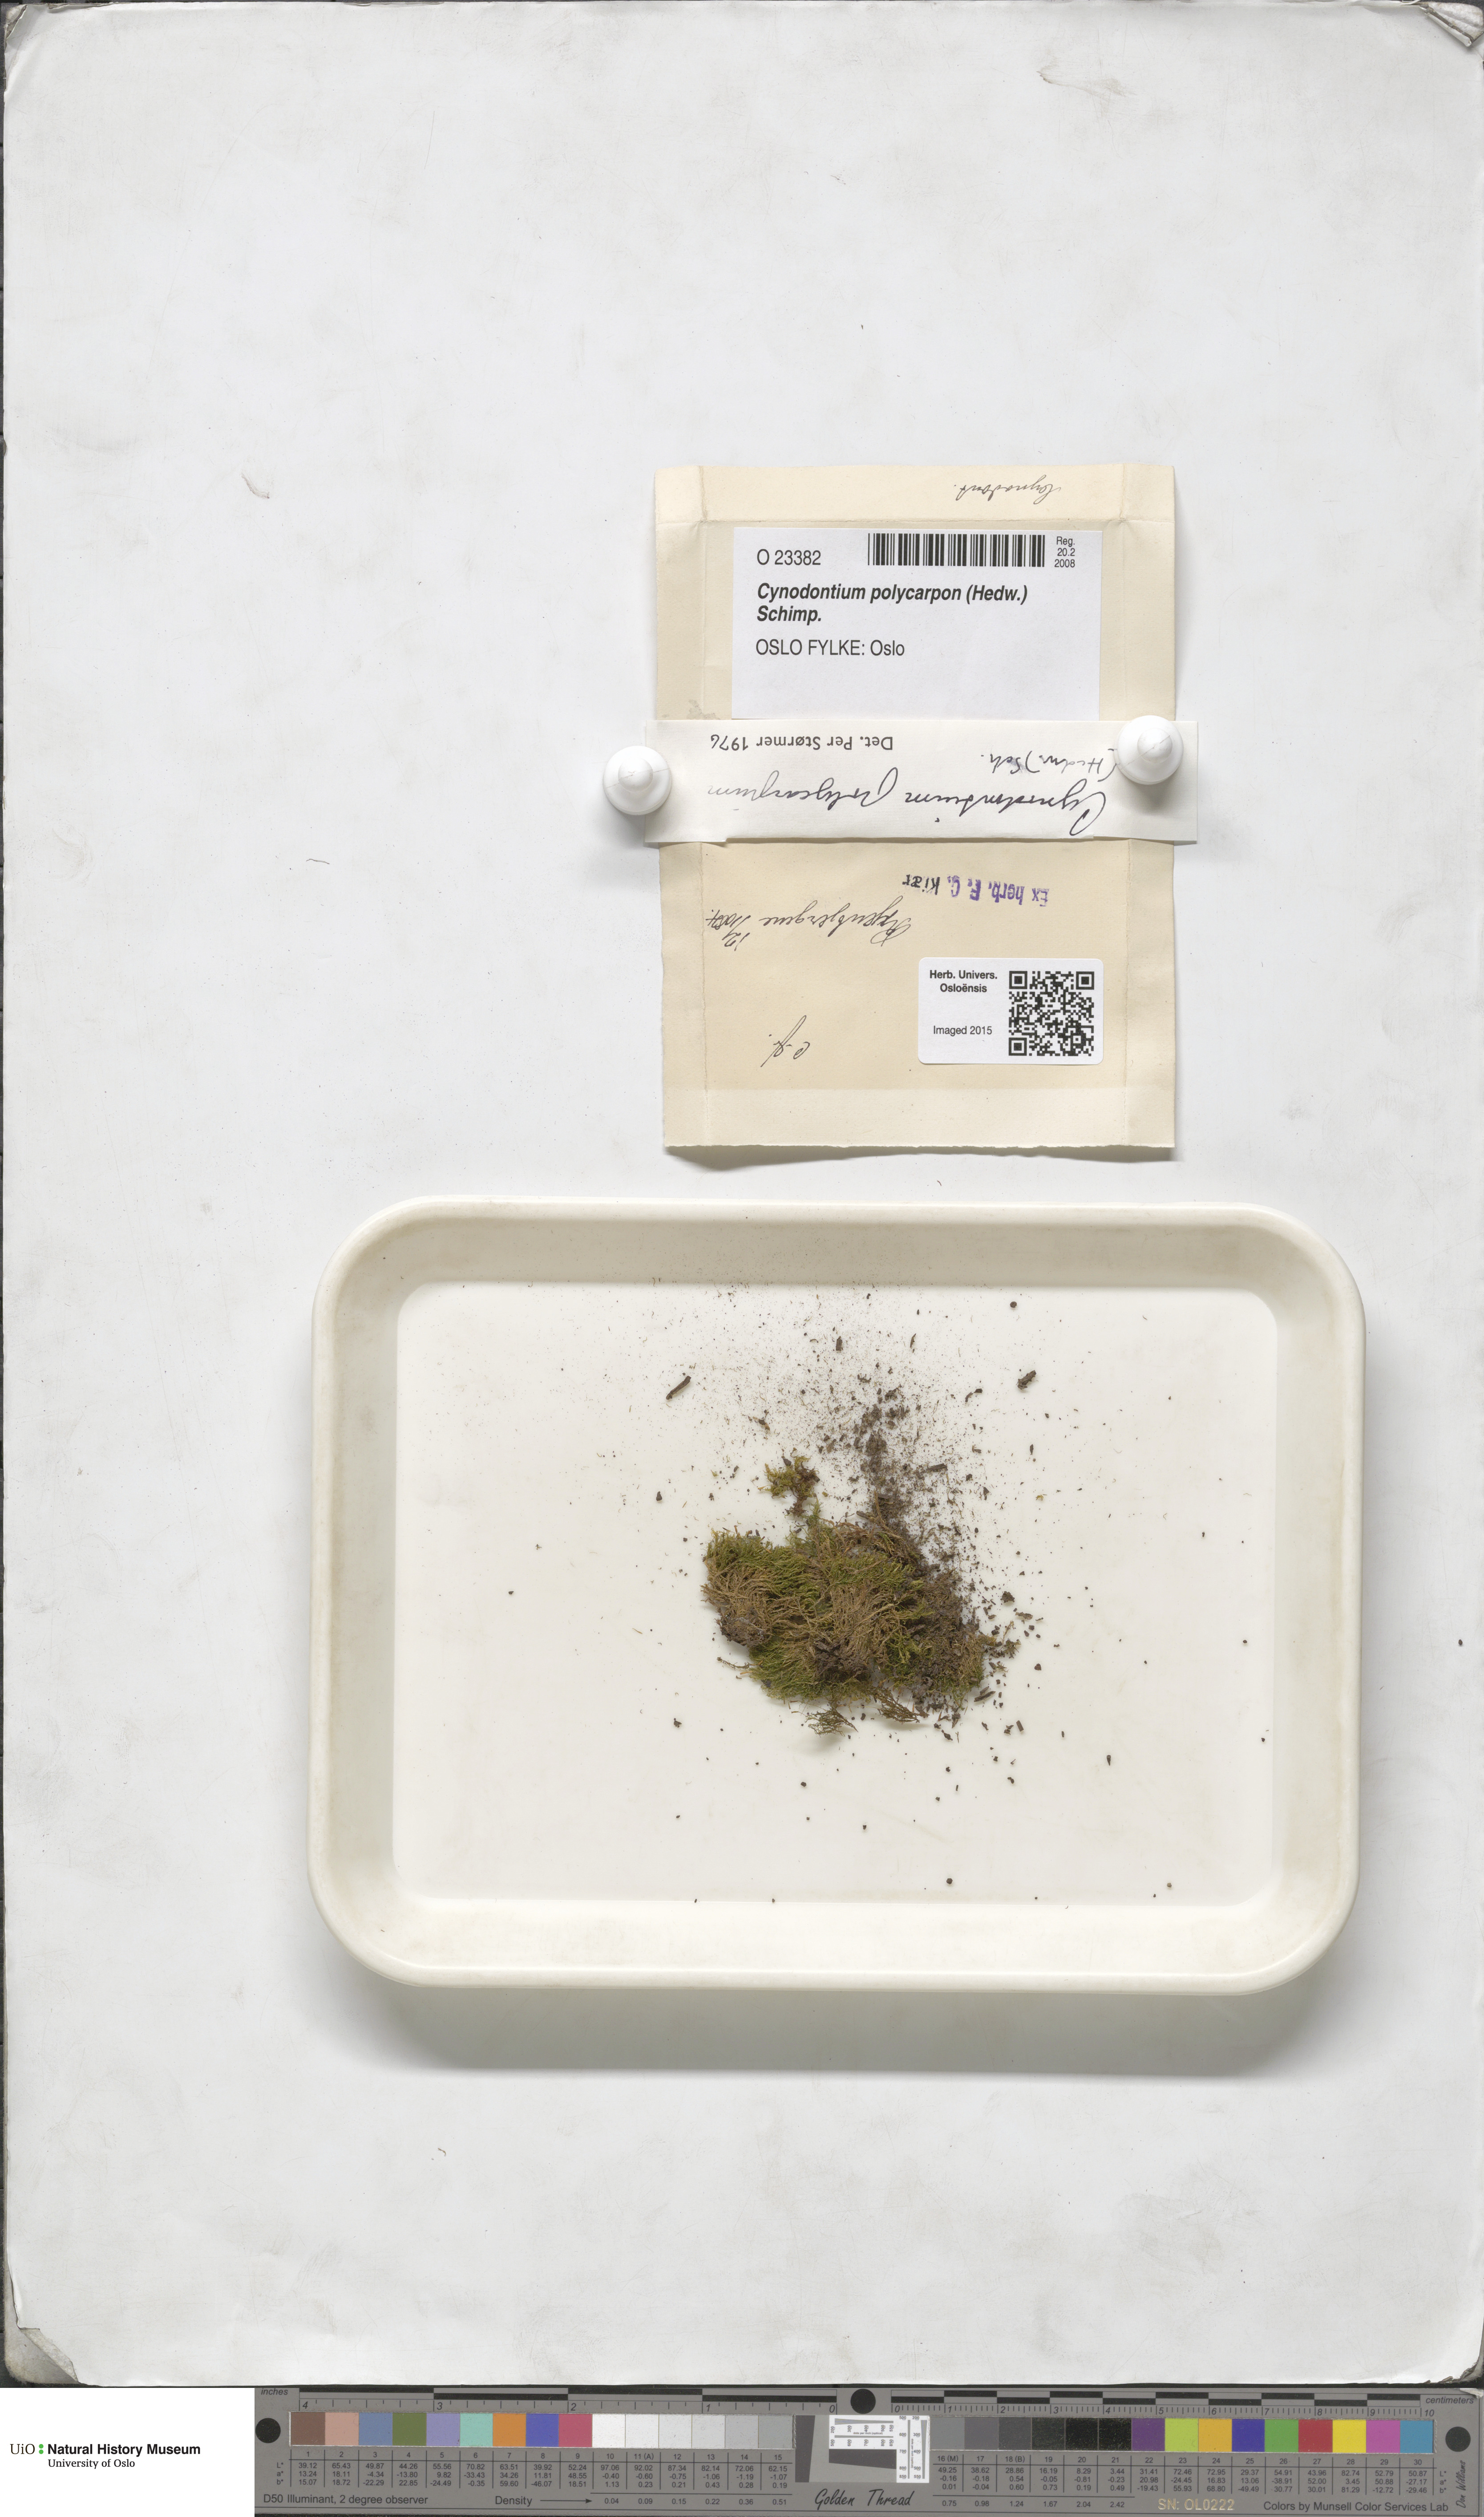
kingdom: Plantae
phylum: Bryophyta
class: Bryopsida
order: Dicranales
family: Rhabdoweisiaceae
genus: Cynodontium
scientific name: Cynodontium polycarpon
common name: Many-fruited dogtooth moss
